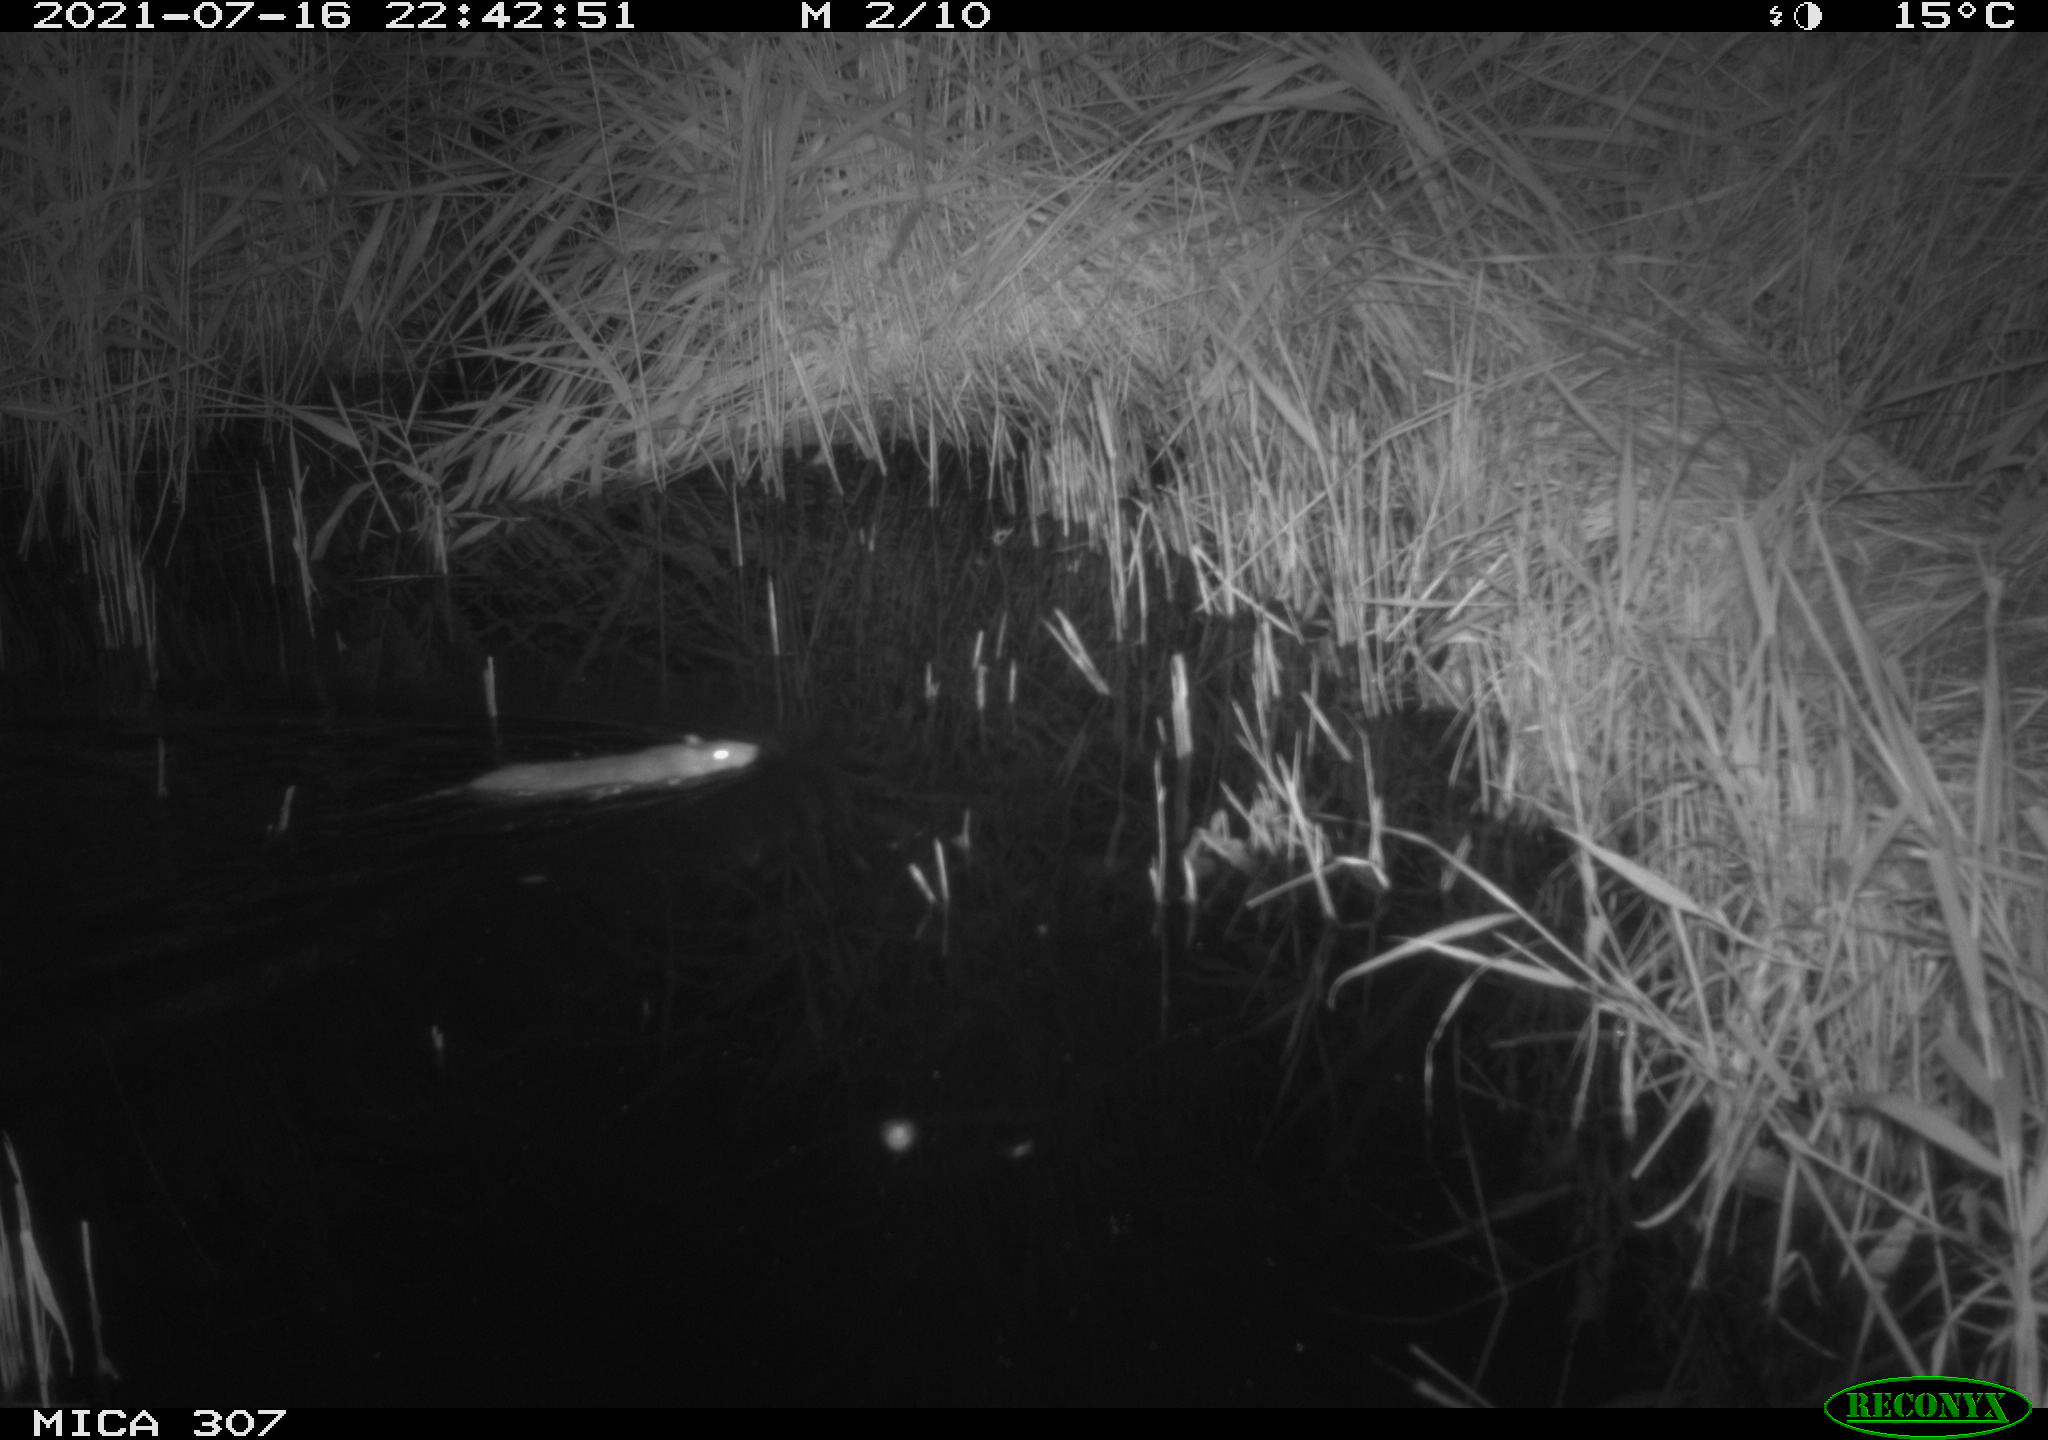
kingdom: Animalia
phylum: Chordata
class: Mammalia
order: Rodentia
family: Muridae
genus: Rattus
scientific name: Rattus norvegicus
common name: Brown rat
